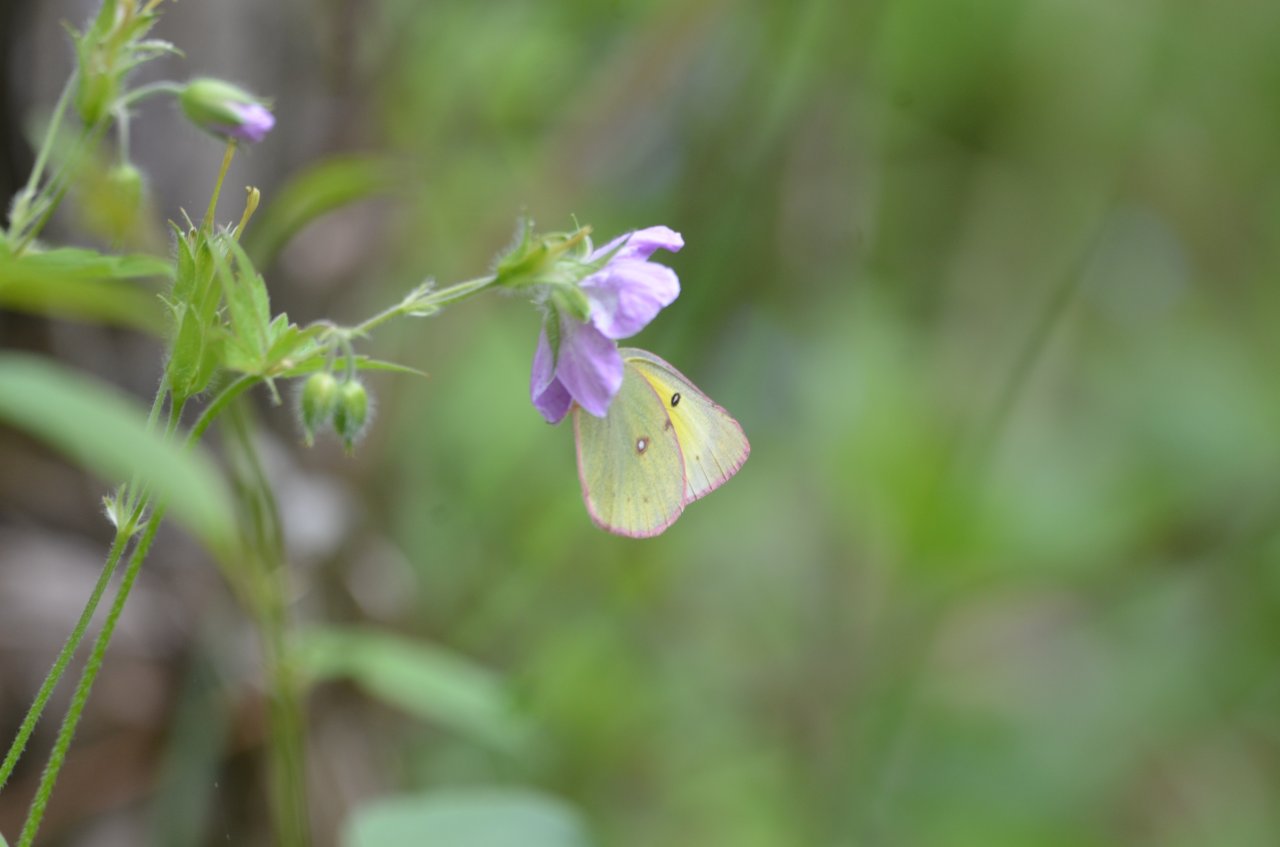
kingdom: Animalia
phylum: Arthropoda
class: Insecta
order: Lepidoptera
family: Pieridae
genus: Colias
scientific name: Colias
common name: Clouded Yellows
